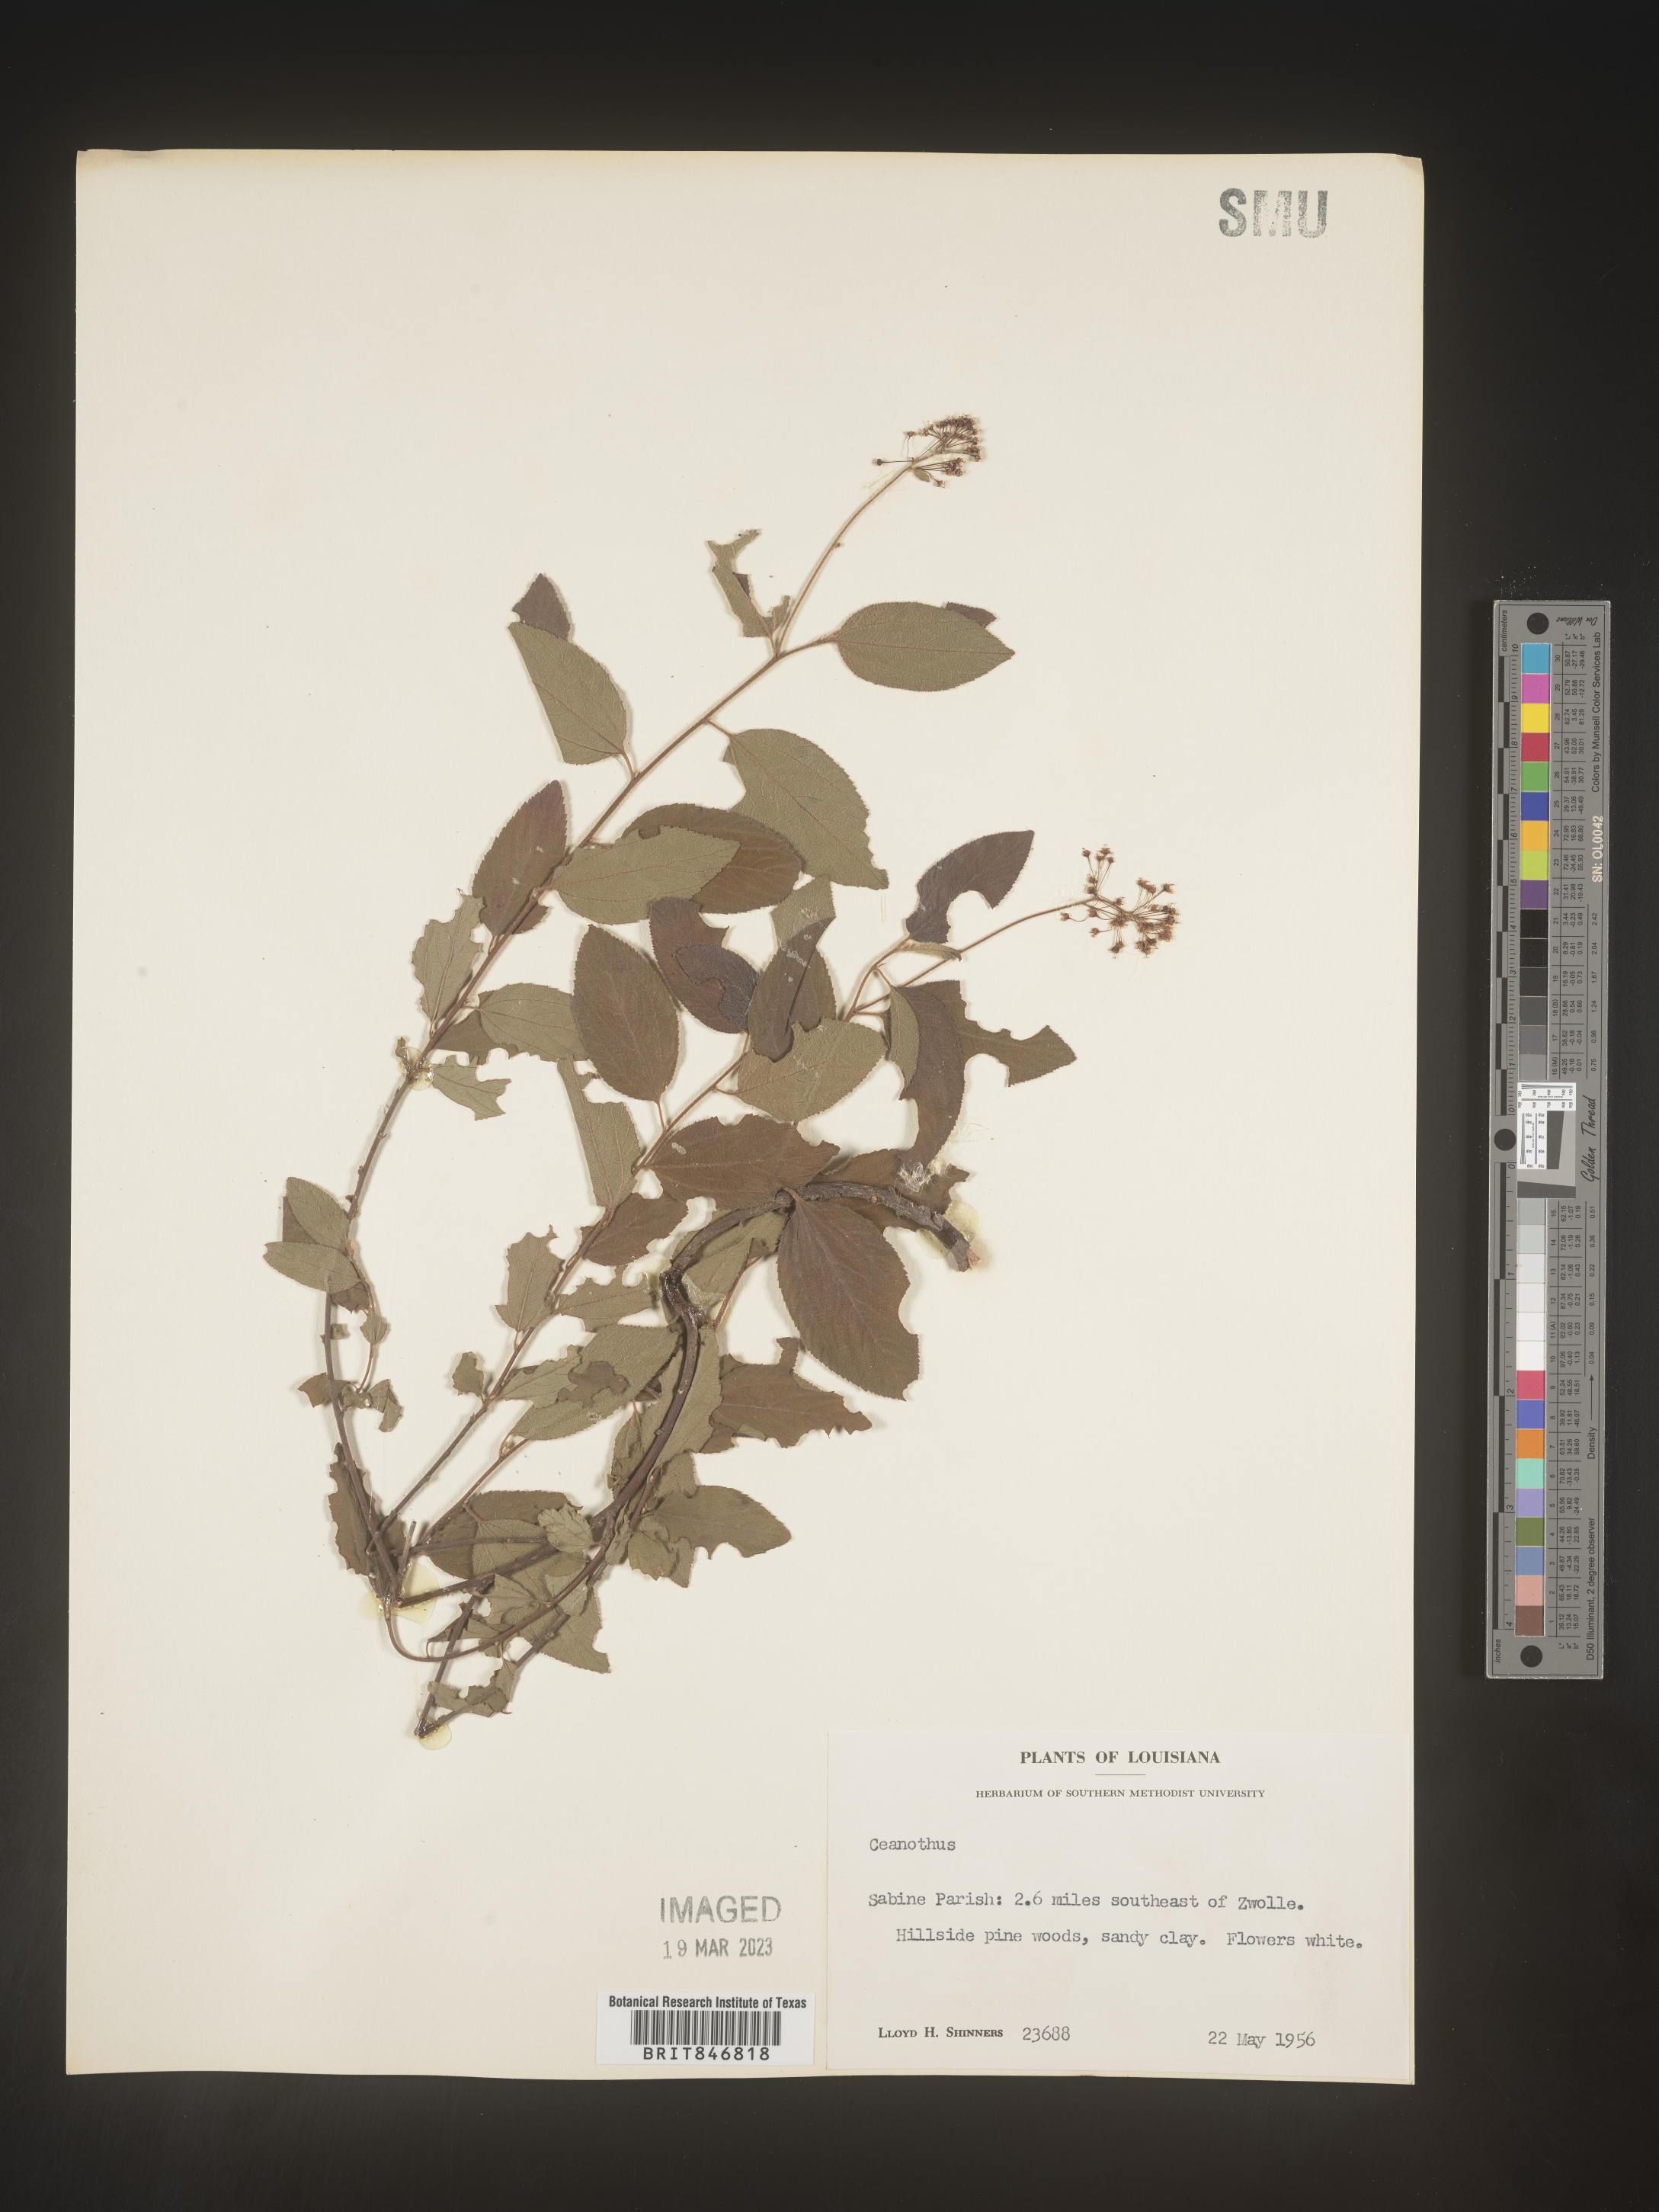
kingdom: Plantae
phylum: Tracheophyta
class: Magnoliopsida
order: Rosales
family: Rhamnaceae
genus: Ceanothus
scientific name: Ceanothus americanus
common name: Redroot
